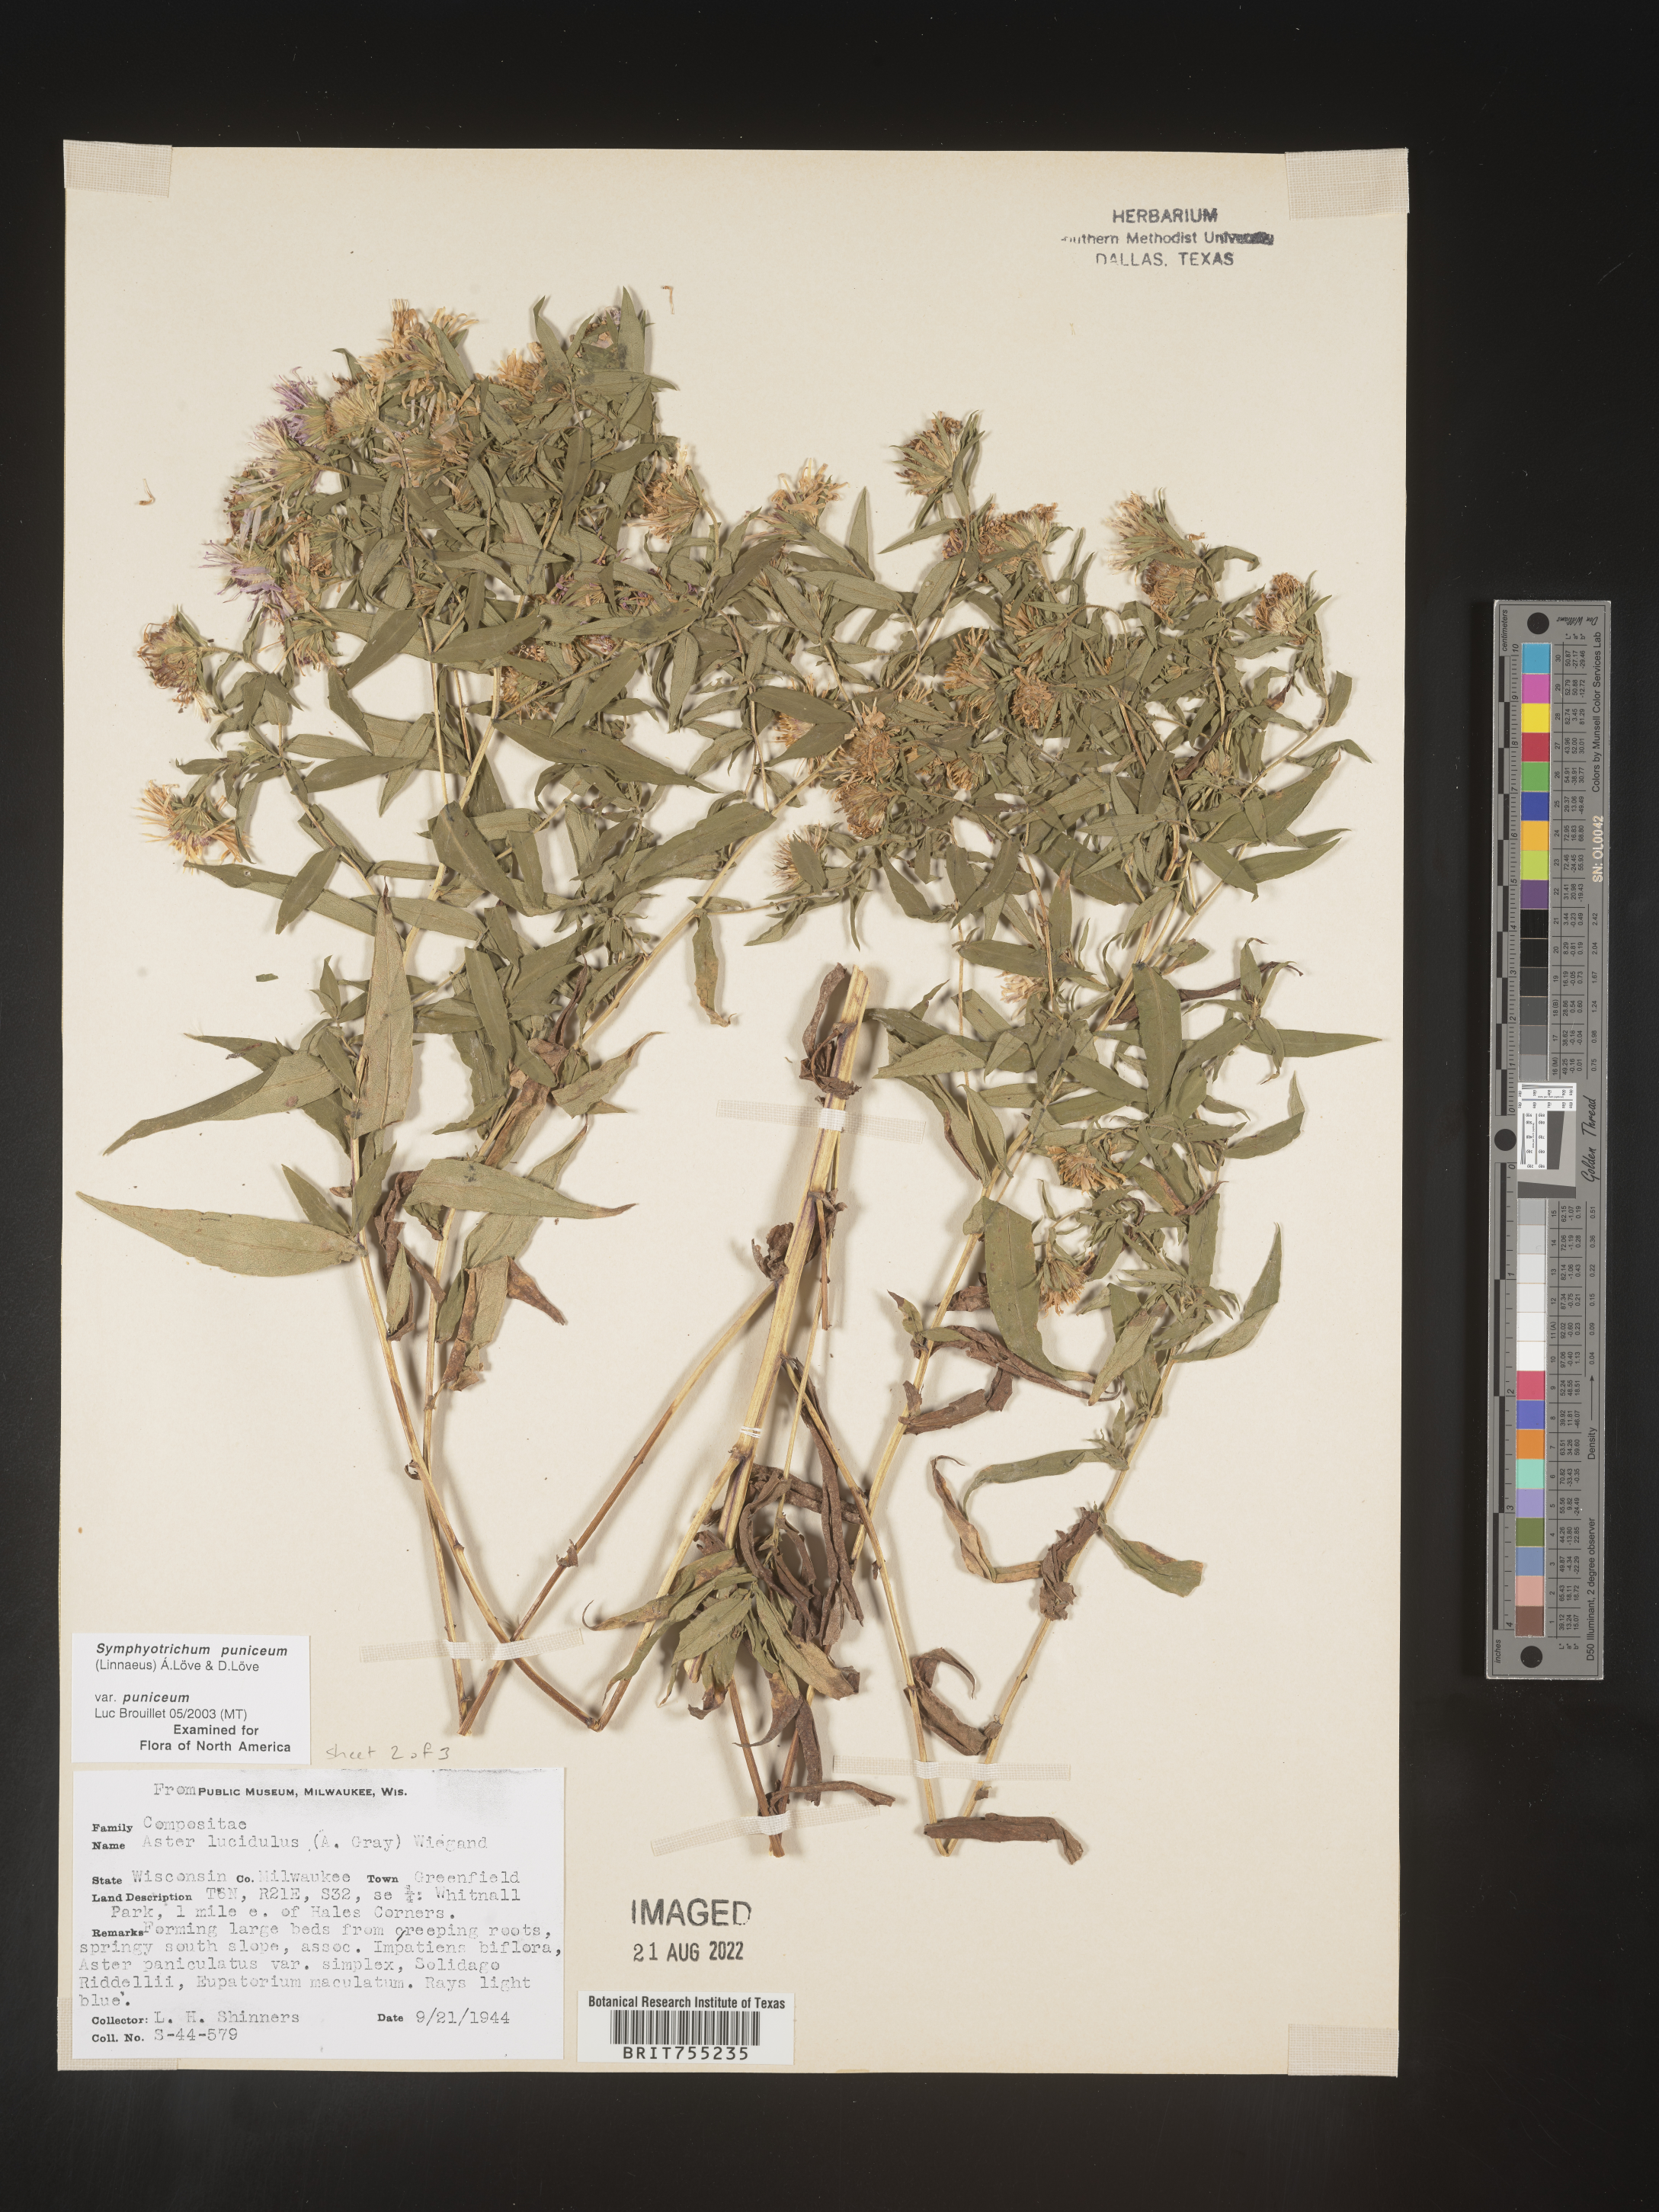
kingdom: Plantae
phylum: Tracheophyta
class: Magnoliopsida
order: Asterales
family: Asteraceae
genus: Symphyotrichum
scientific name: Symphyotrichum puniceum
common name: Bog aster
